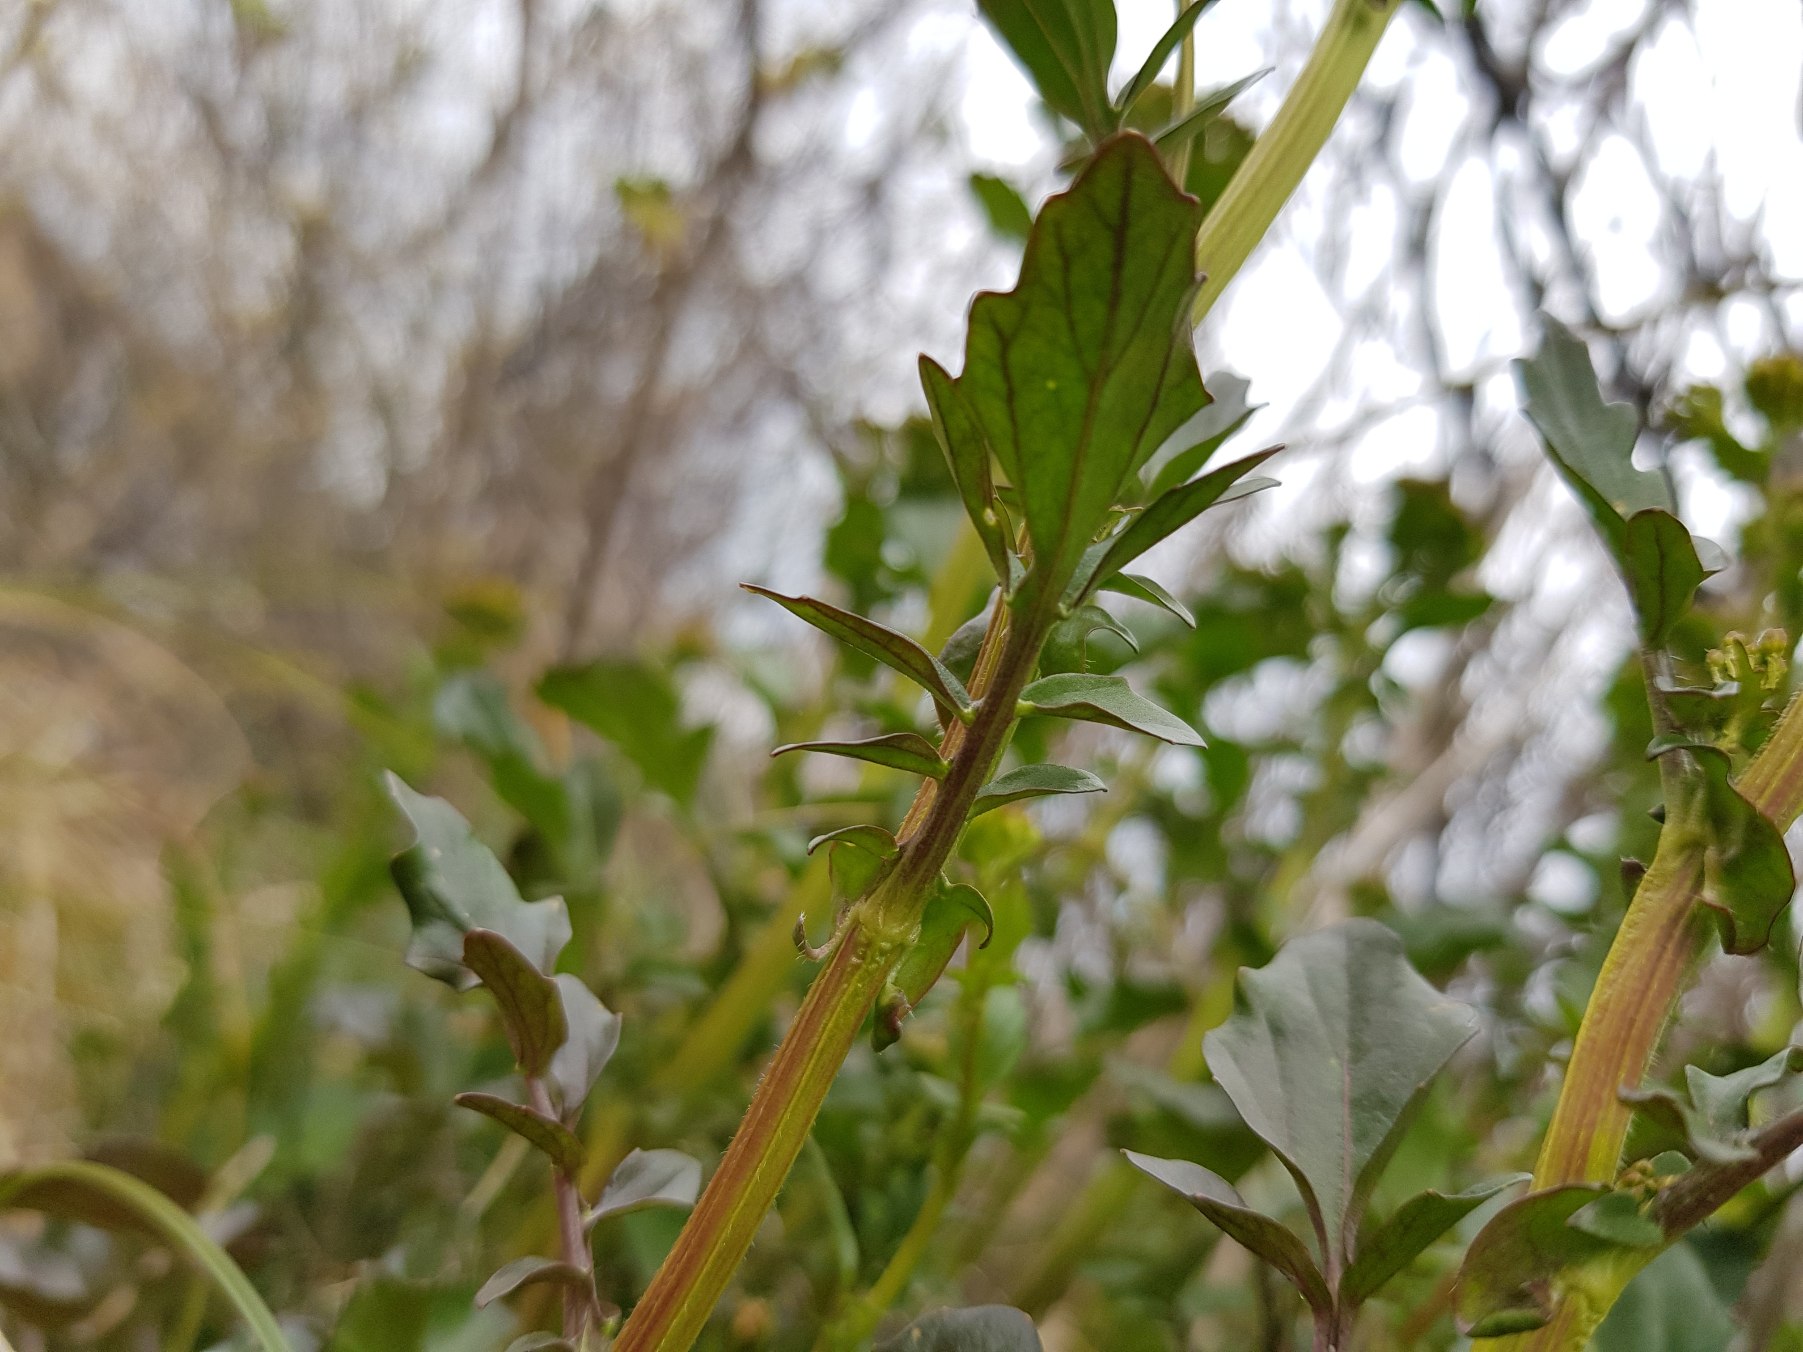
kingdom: Plantae
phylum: Tracheophyta
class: Magnoliopsida
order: Brassicales
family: Brassicaceae
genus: Barbarea
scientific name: Barbarea vulgaris
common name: Almindelig vinterkarse
